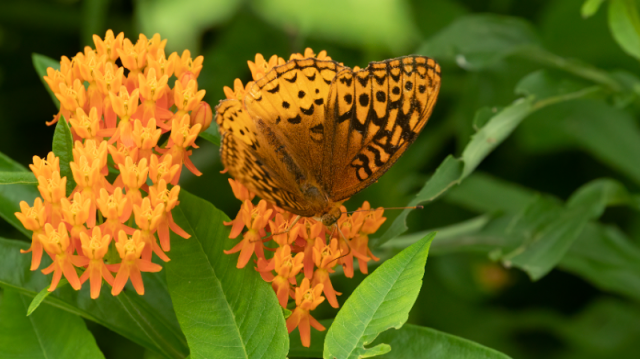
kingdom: Animalia
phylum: Arthropoda
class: Insecta
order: Lepidoptera
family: Nymphalidae
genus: Speyeria
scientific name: Speyeria cybele
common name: Great Spangled Fritillary
